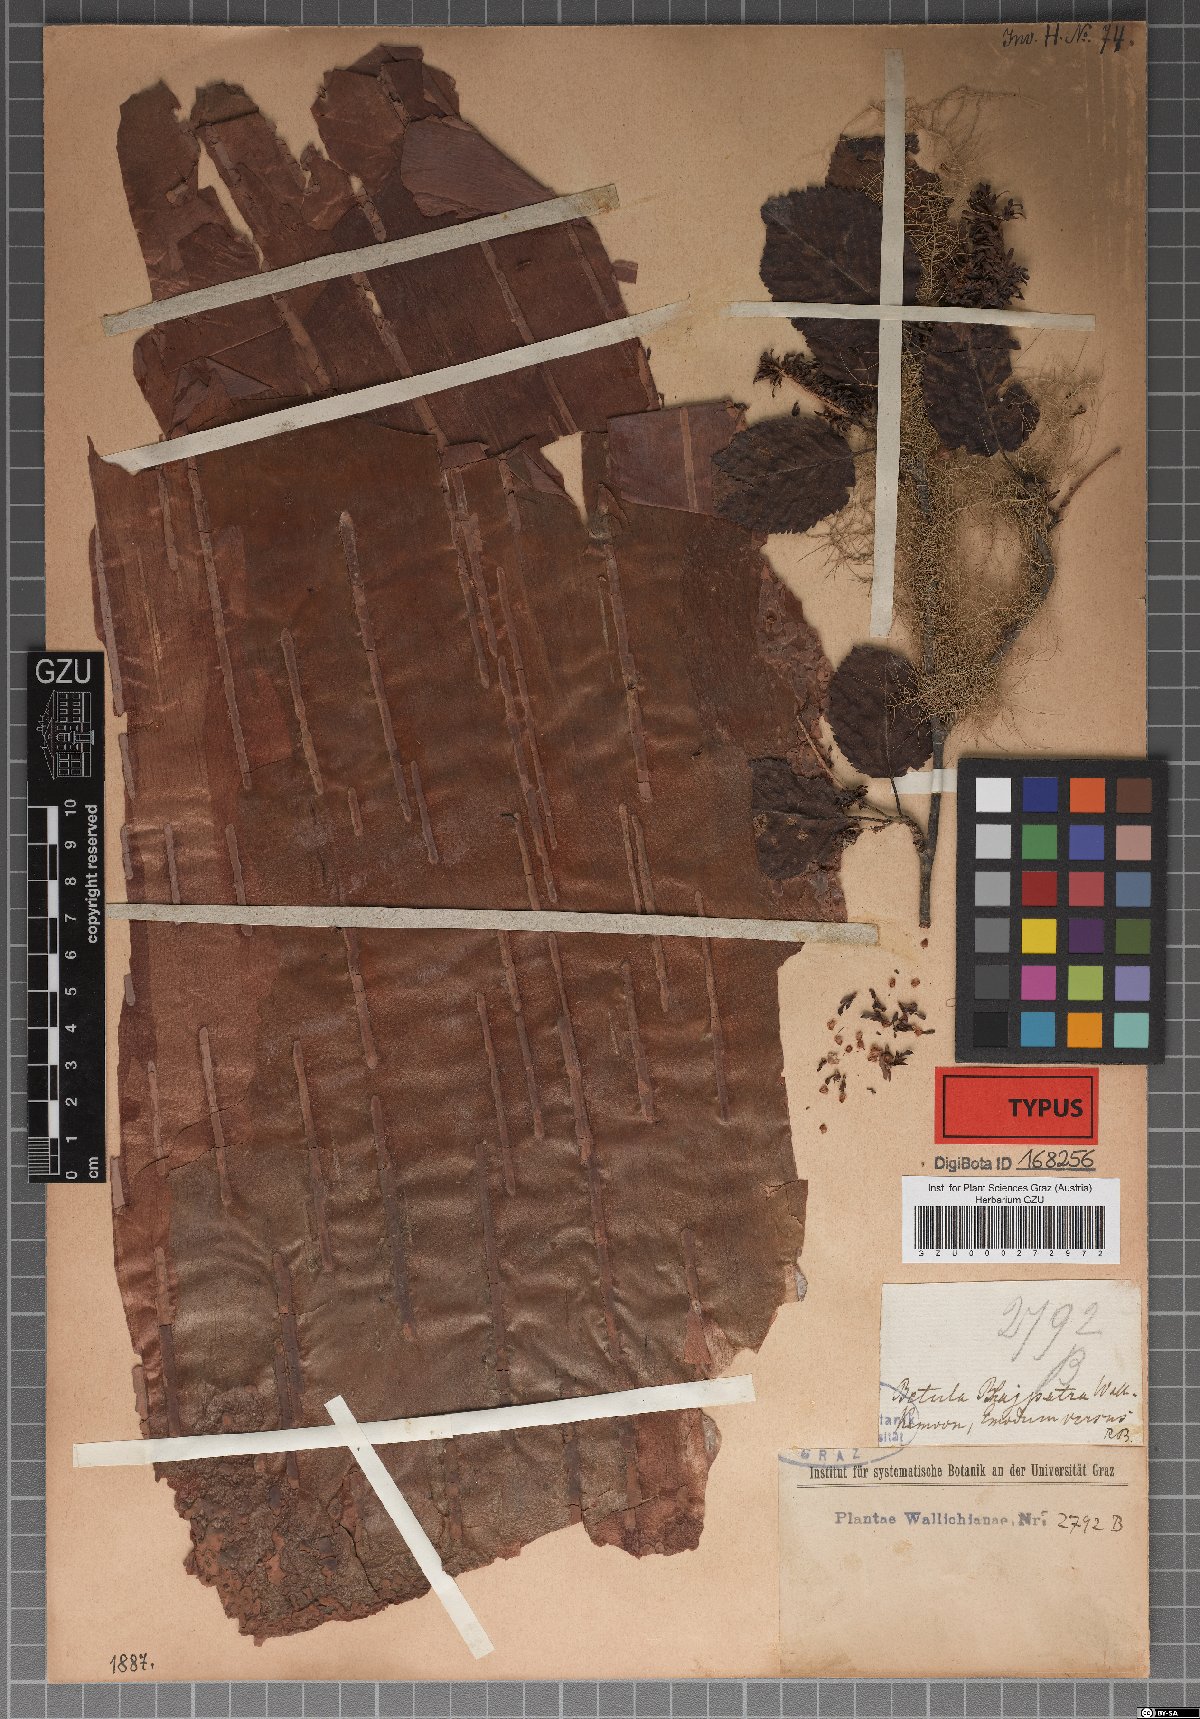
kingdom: Plantae
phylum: Tracheophyta
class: Magnoliopsida
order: Fagales
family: Betulaceae
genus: Betula
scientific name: Betula utilis
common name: Himalayan birch
